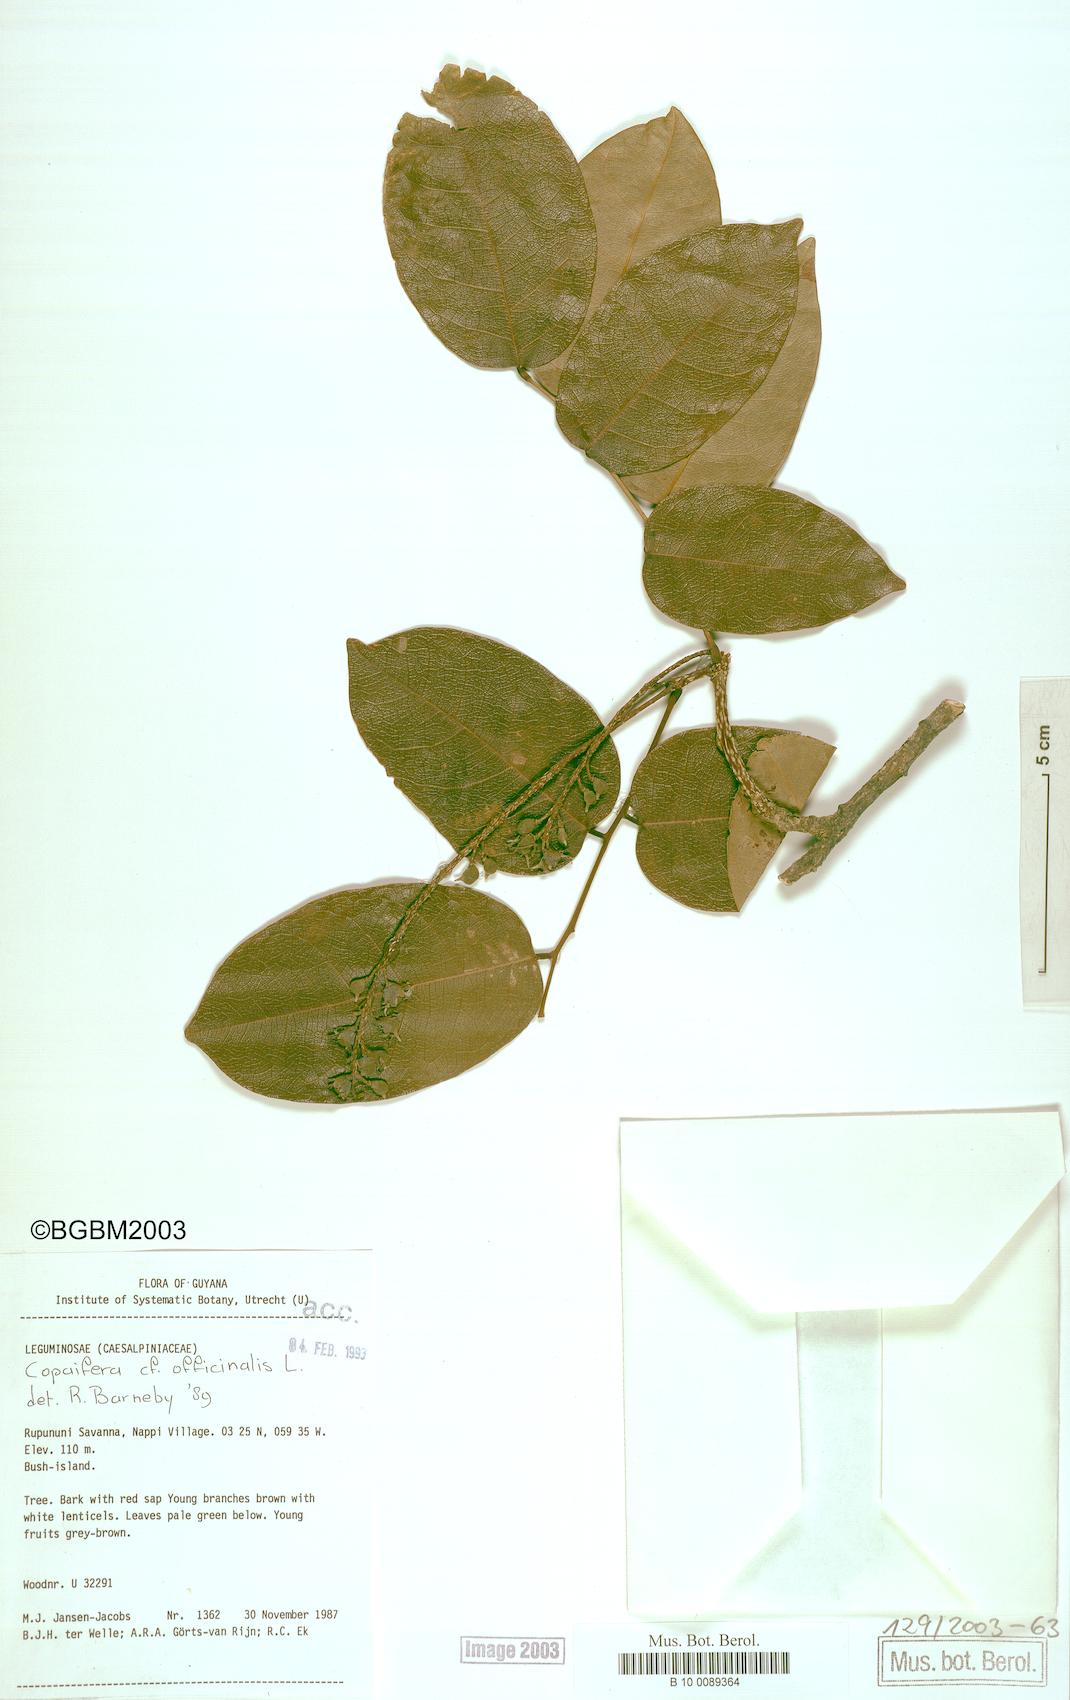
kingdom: Plantae
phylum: Tracheophyta
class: Magnoliopsida
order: Fabales
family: Fabaceae
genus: Pterocarpus
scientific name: Pterocarpus
